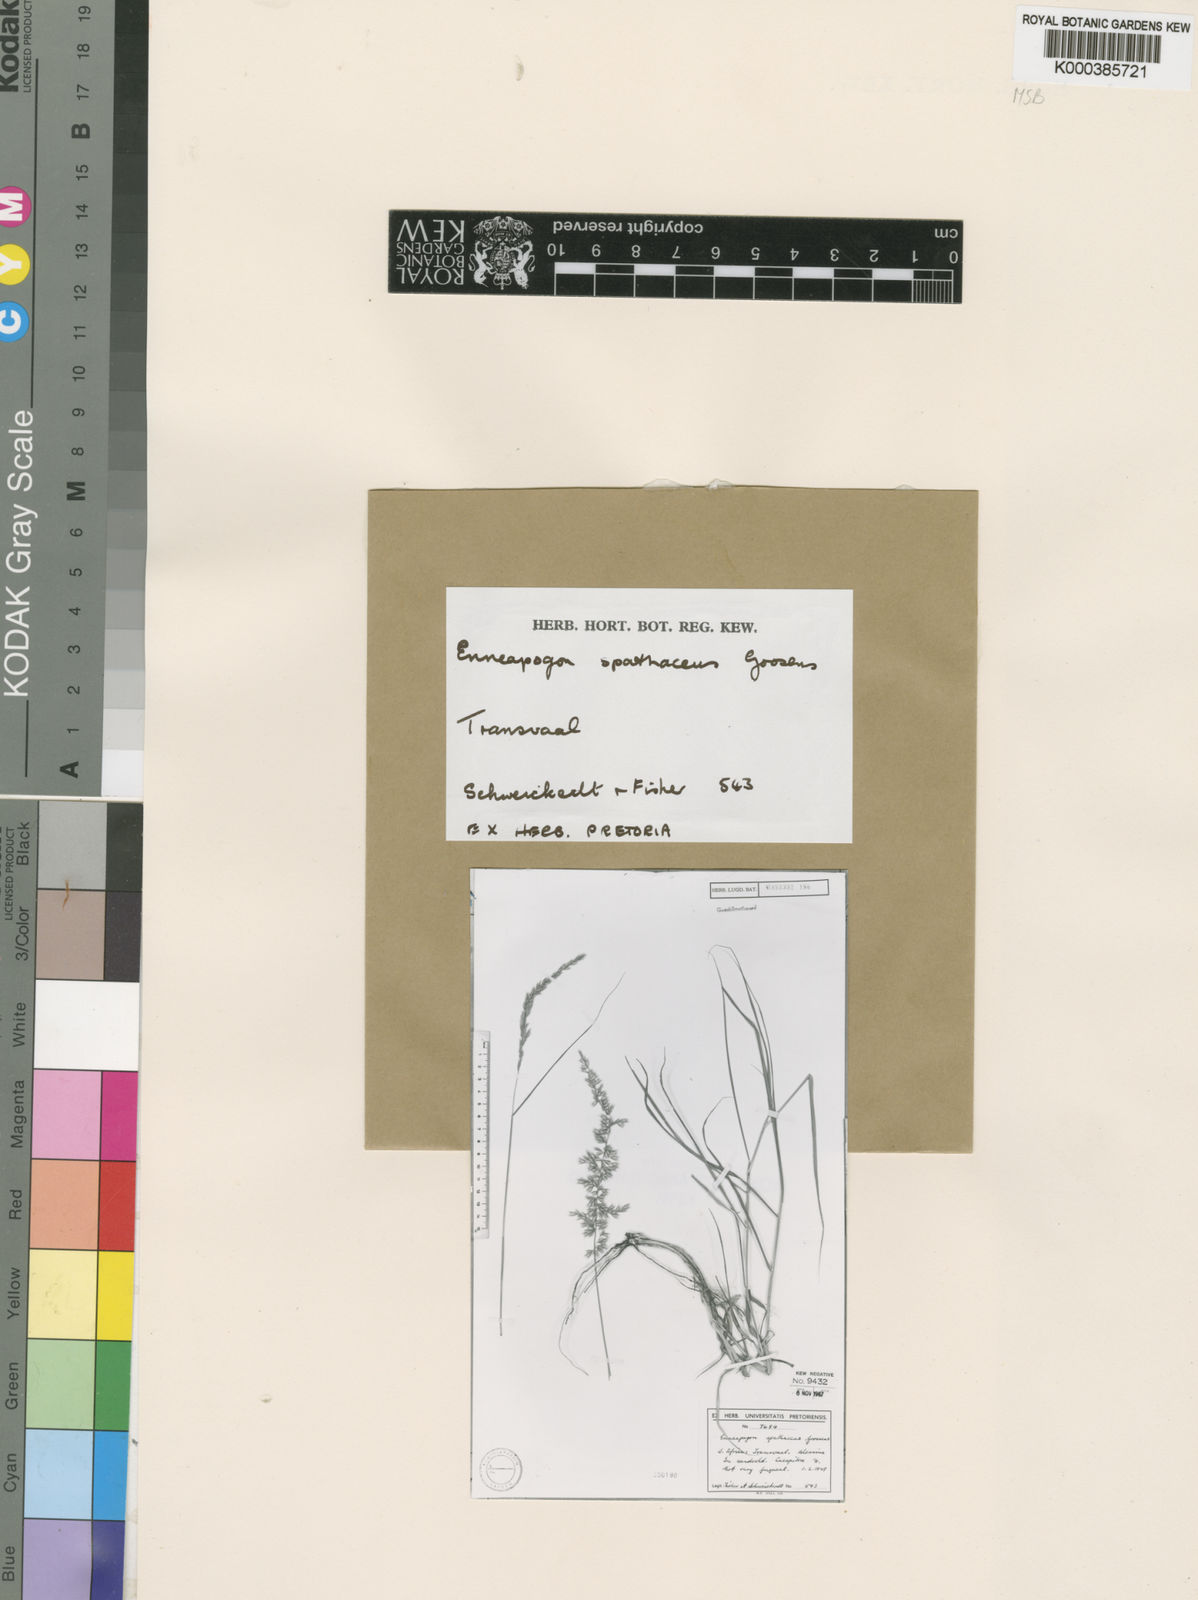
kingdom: Plantae
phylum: Tracheophyta
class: Liliopsida
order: Poales
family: Poaceae
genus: Enneapogon
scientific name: Enneapogon spathaceus
